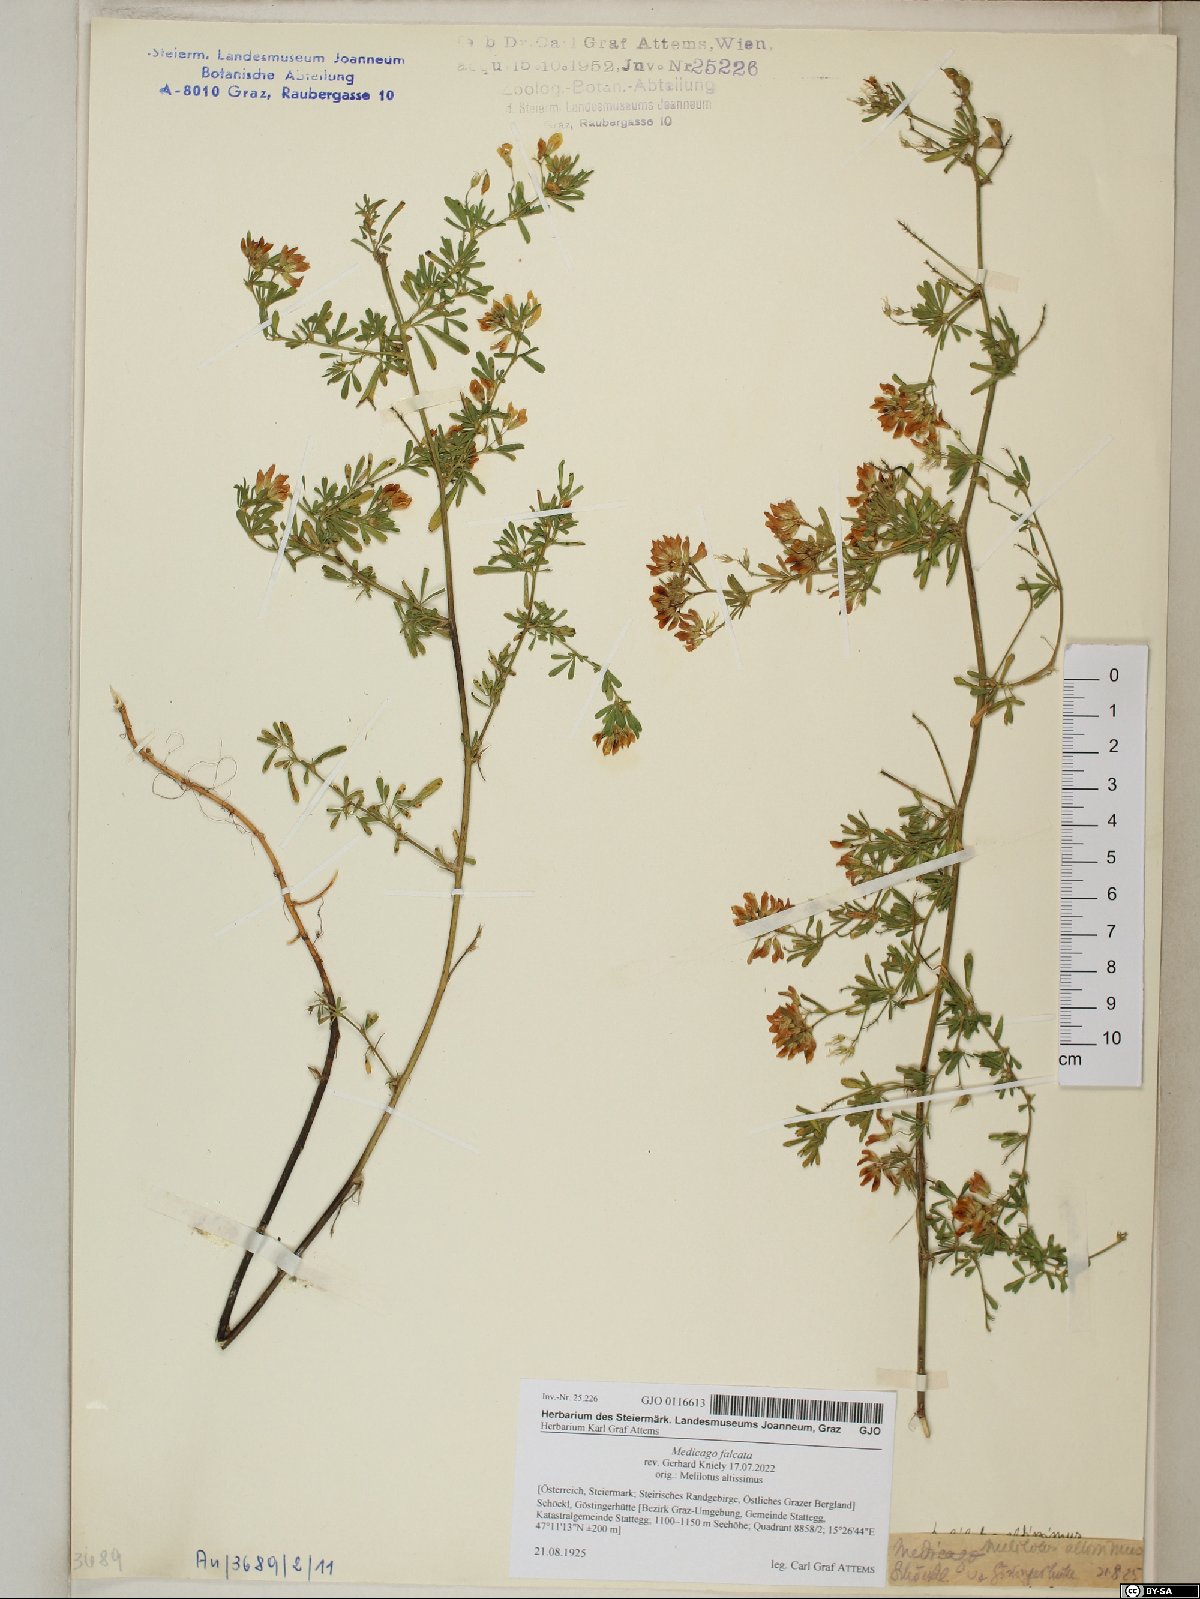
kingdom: Plantae
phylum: Tracheophyta
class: Magnoliopsida
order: Fabales
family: Fabaceae
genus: Medicago
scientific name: Medicago falcata
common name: Sickle medick
